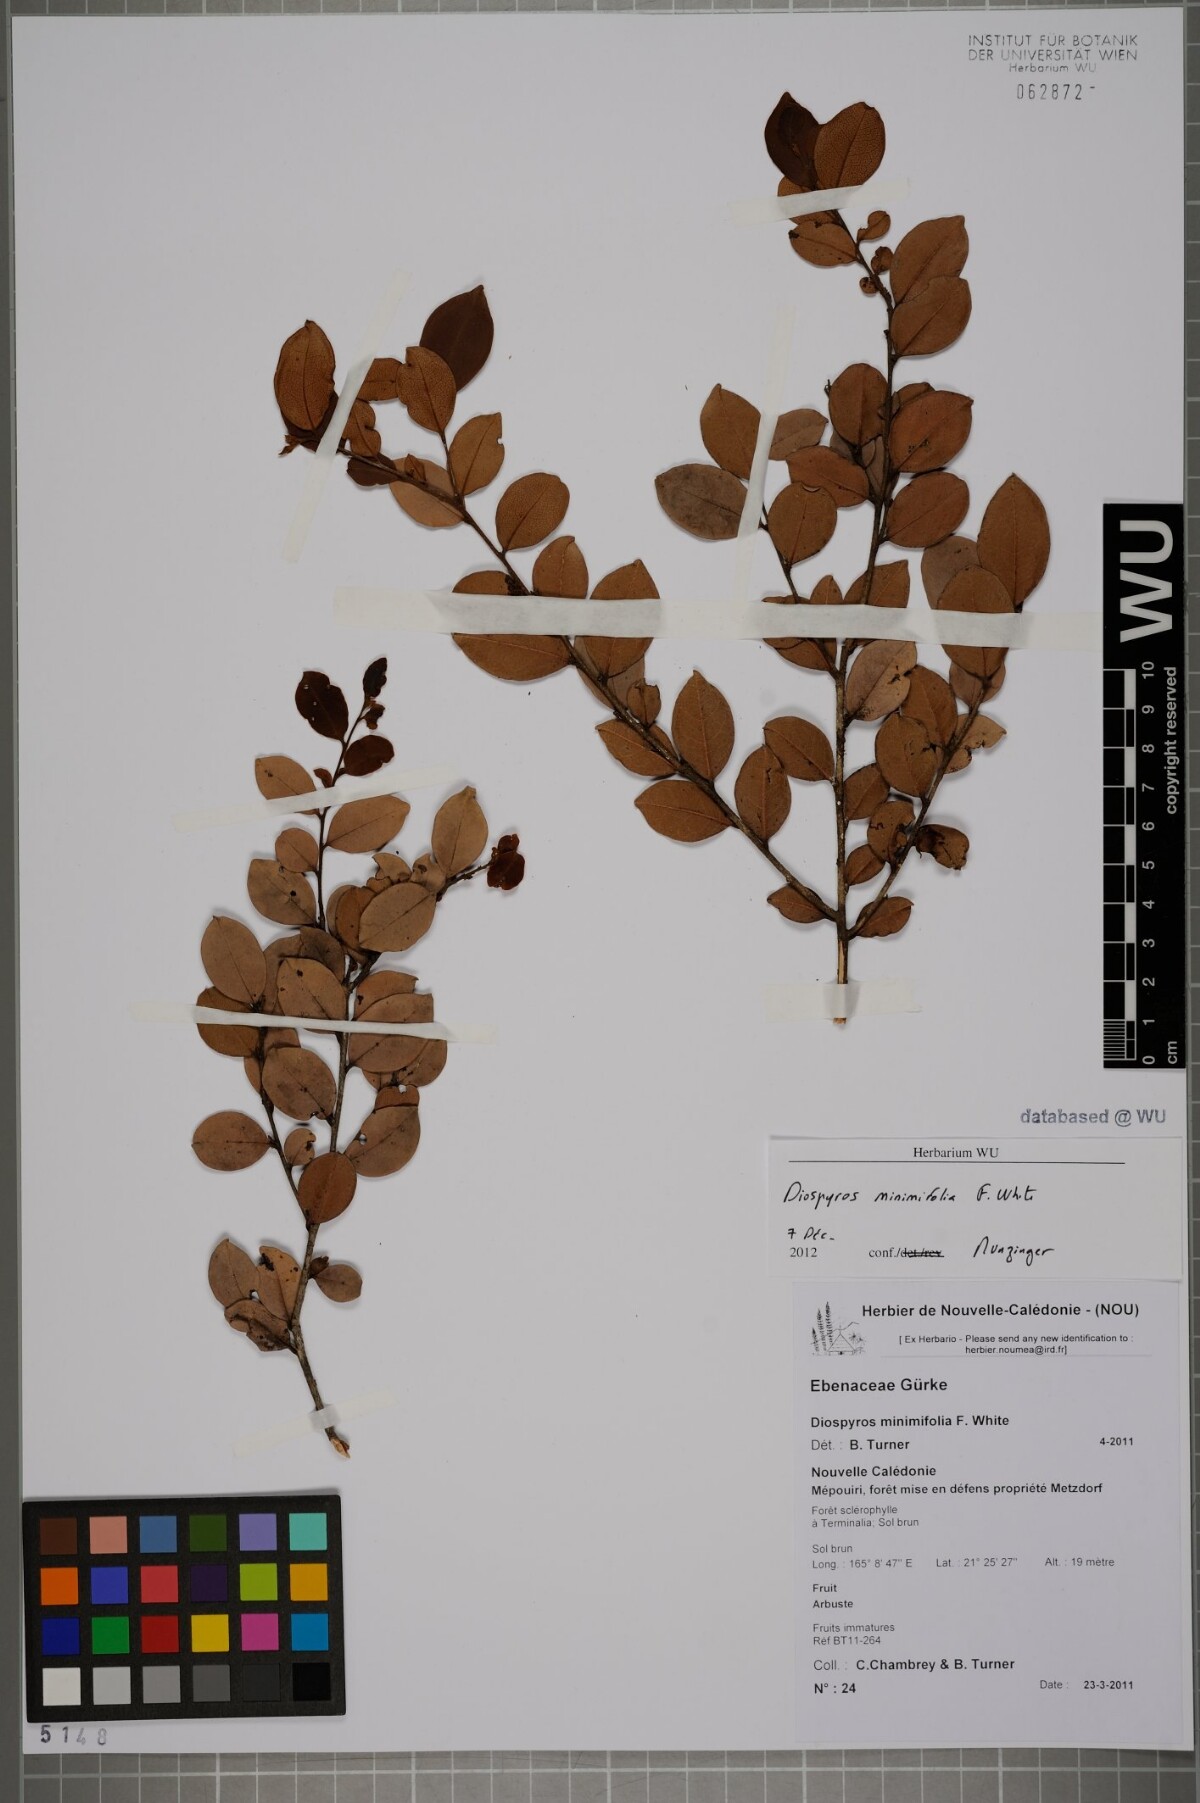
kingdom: Plantae
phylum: Tracheophyta
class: Magnoliopsida
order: Ericales
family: Ebenaceae
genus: Diospyros
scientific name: Diospyros minimifolia
